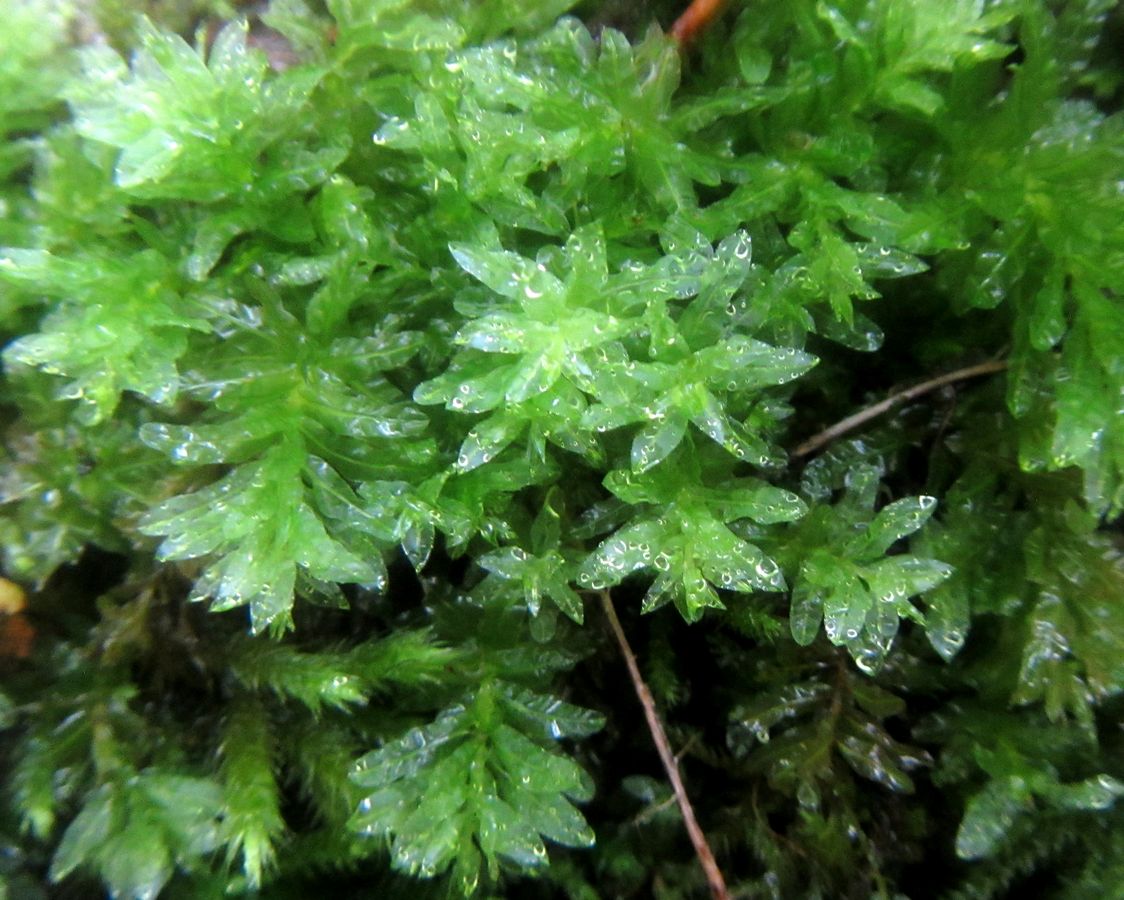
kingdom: Plantae
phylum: Bryophyta
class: Bryopsida
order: Bryales
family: Mniaceae
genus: Plagiomnium
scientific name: Plagiomnium undulatum
